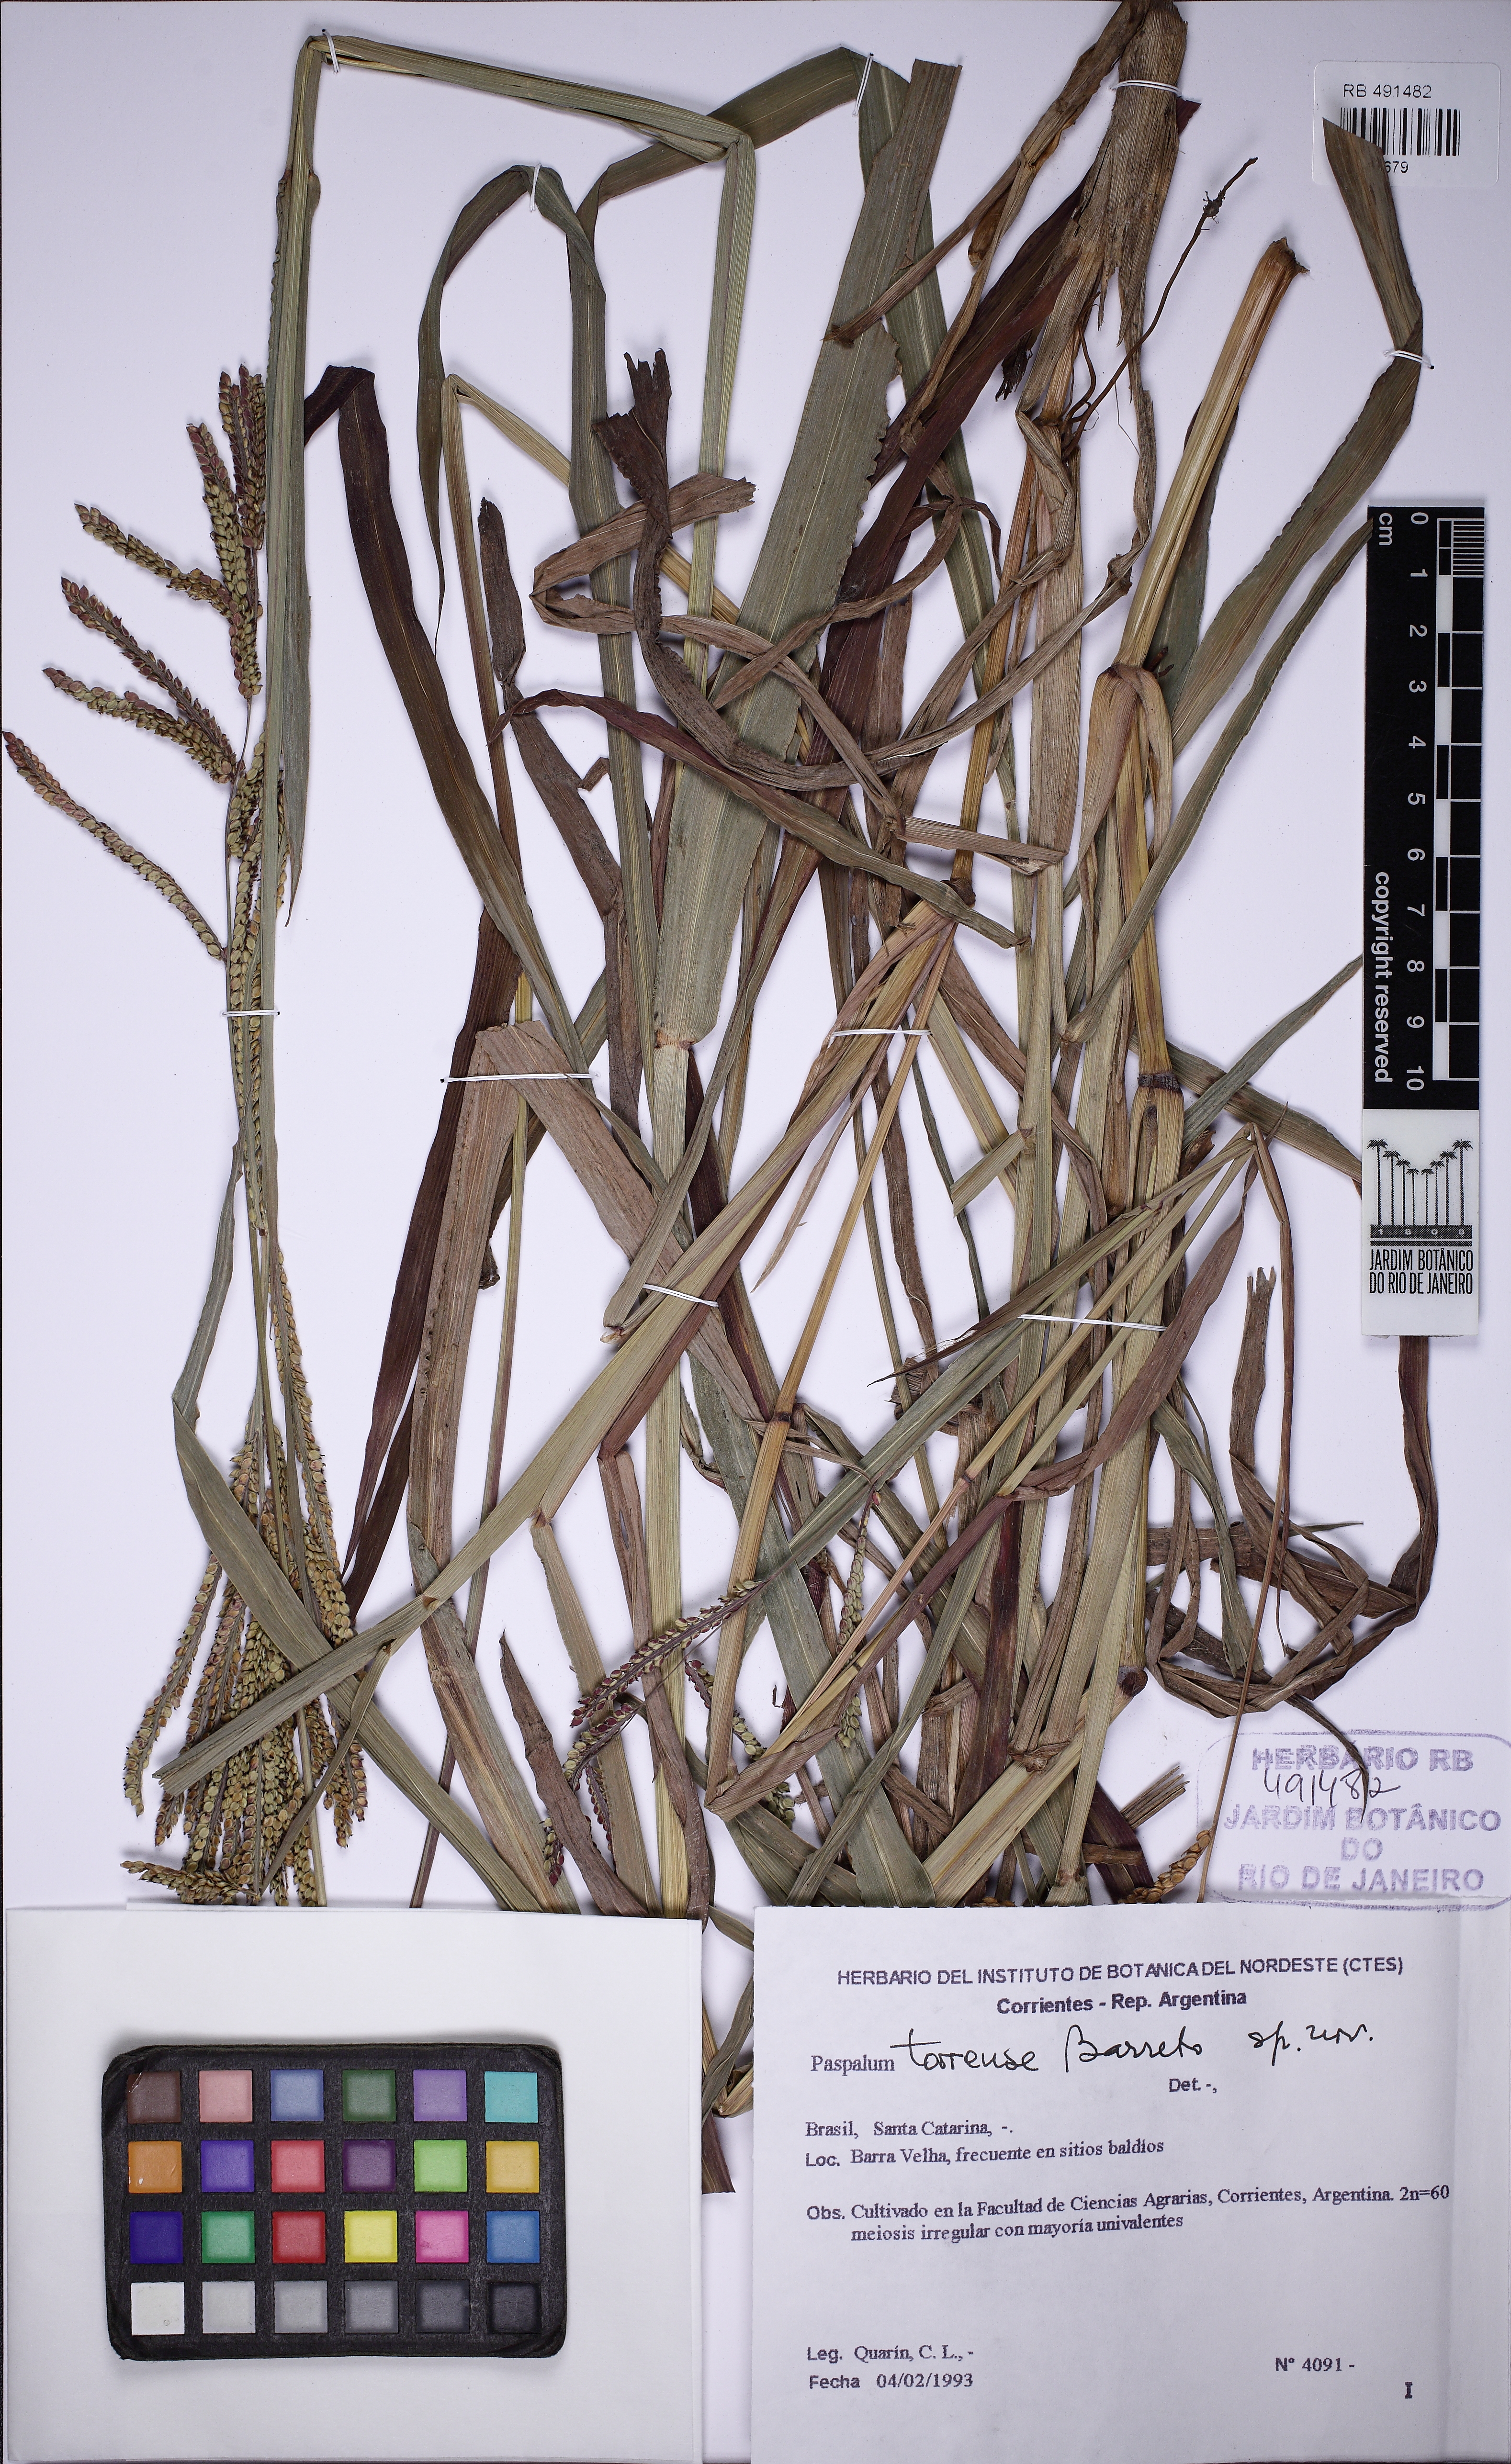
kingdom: Plantae
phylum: Tracheophyta
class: Liliopsida
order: Poales
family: Poaceae
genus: Paspalum
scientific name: Paspalum torrense
